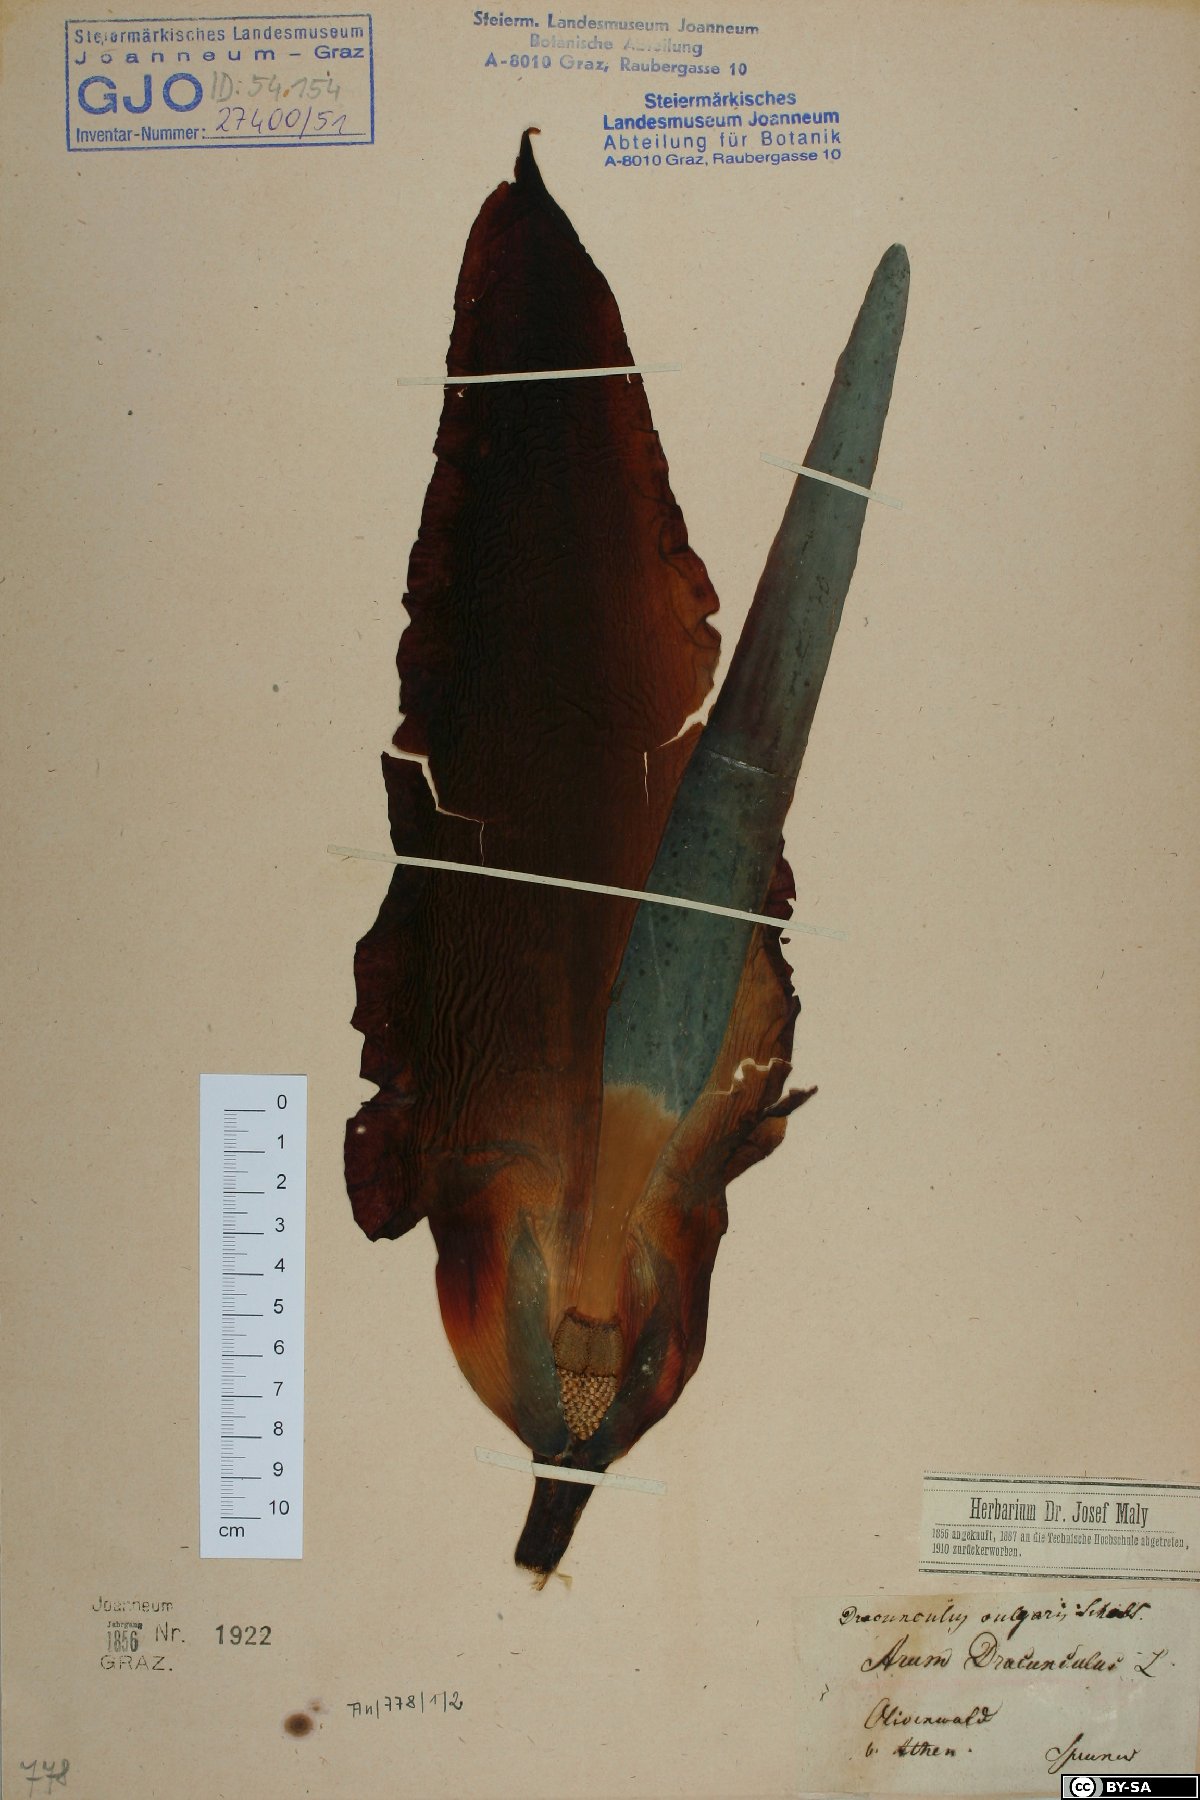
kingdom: Plantae
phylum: Tracheophyta
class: Liliopsida
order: Alismatales
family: Araceae
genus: Dracunculus
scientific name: Dracunculus vulgaris
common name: Dragon arum
